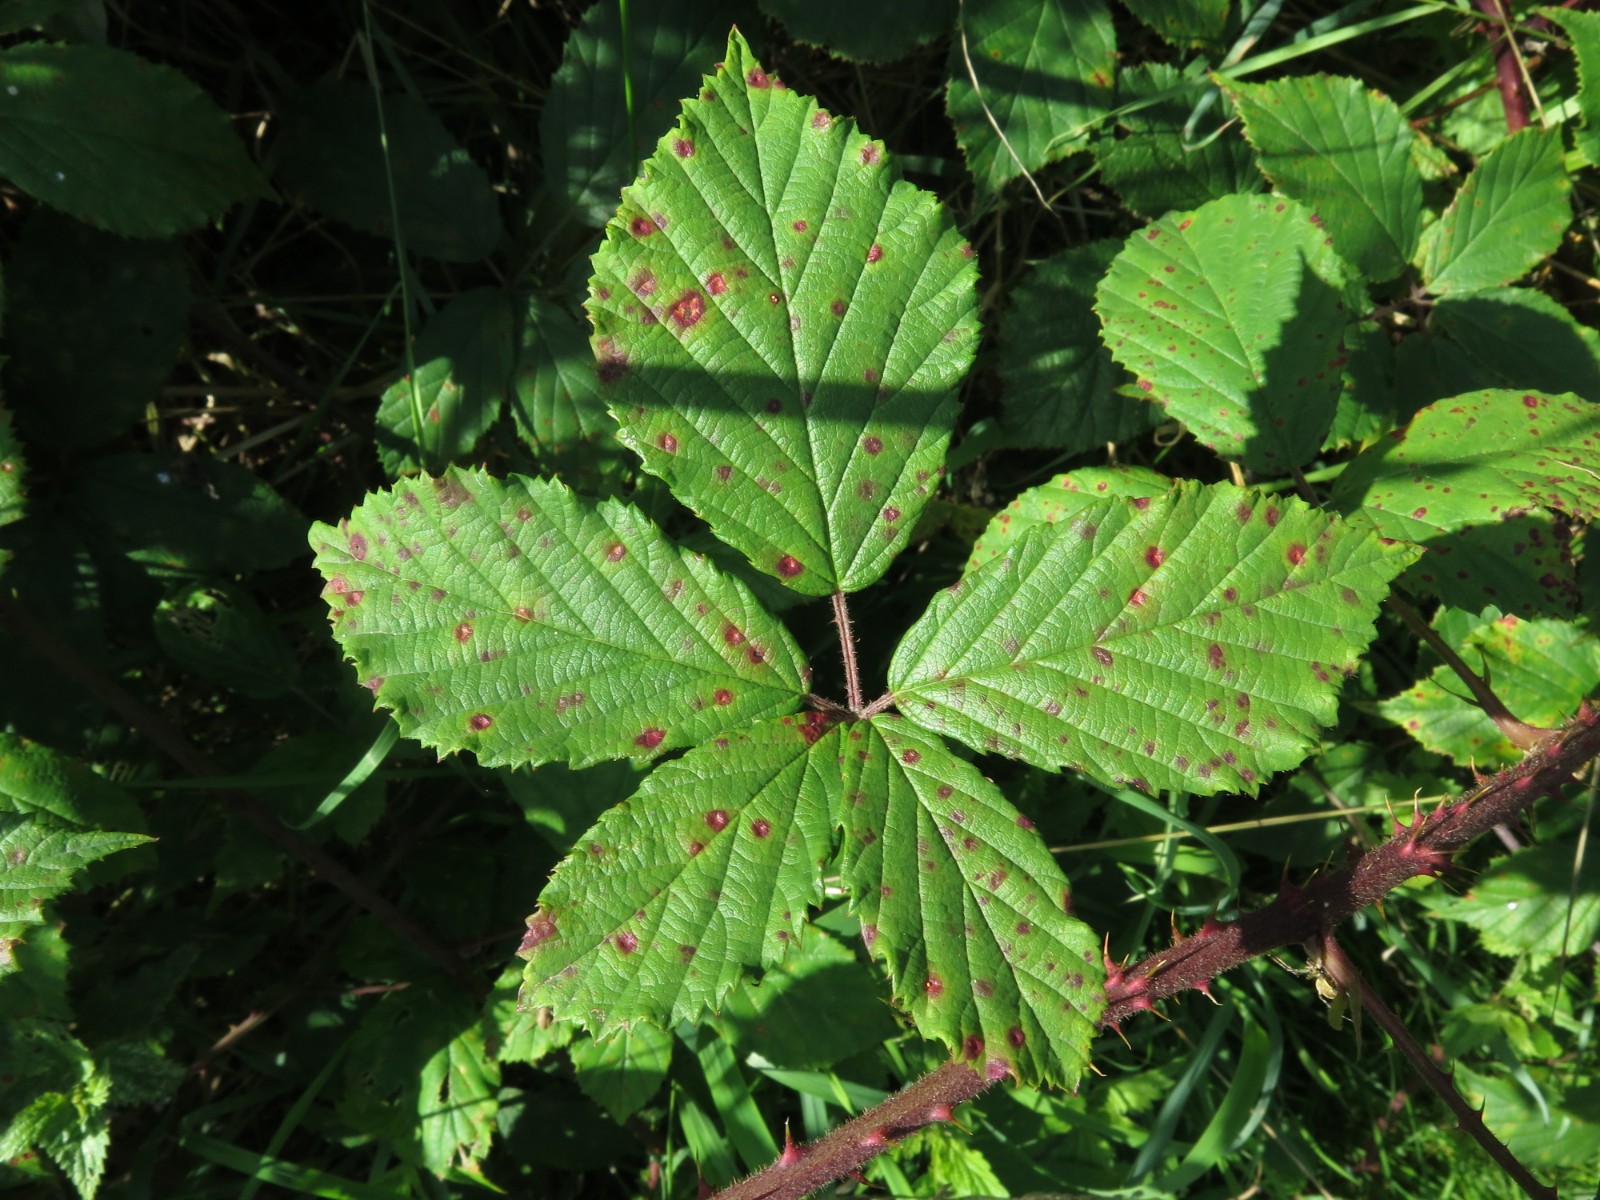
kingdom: Fungi
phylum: Basidiomycota
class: Pucciniomycetes
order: Pucciniales
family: Phragmidiaceae
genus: Phragmidium
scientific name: Phragmidium violaceum
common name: violet flercellerust
